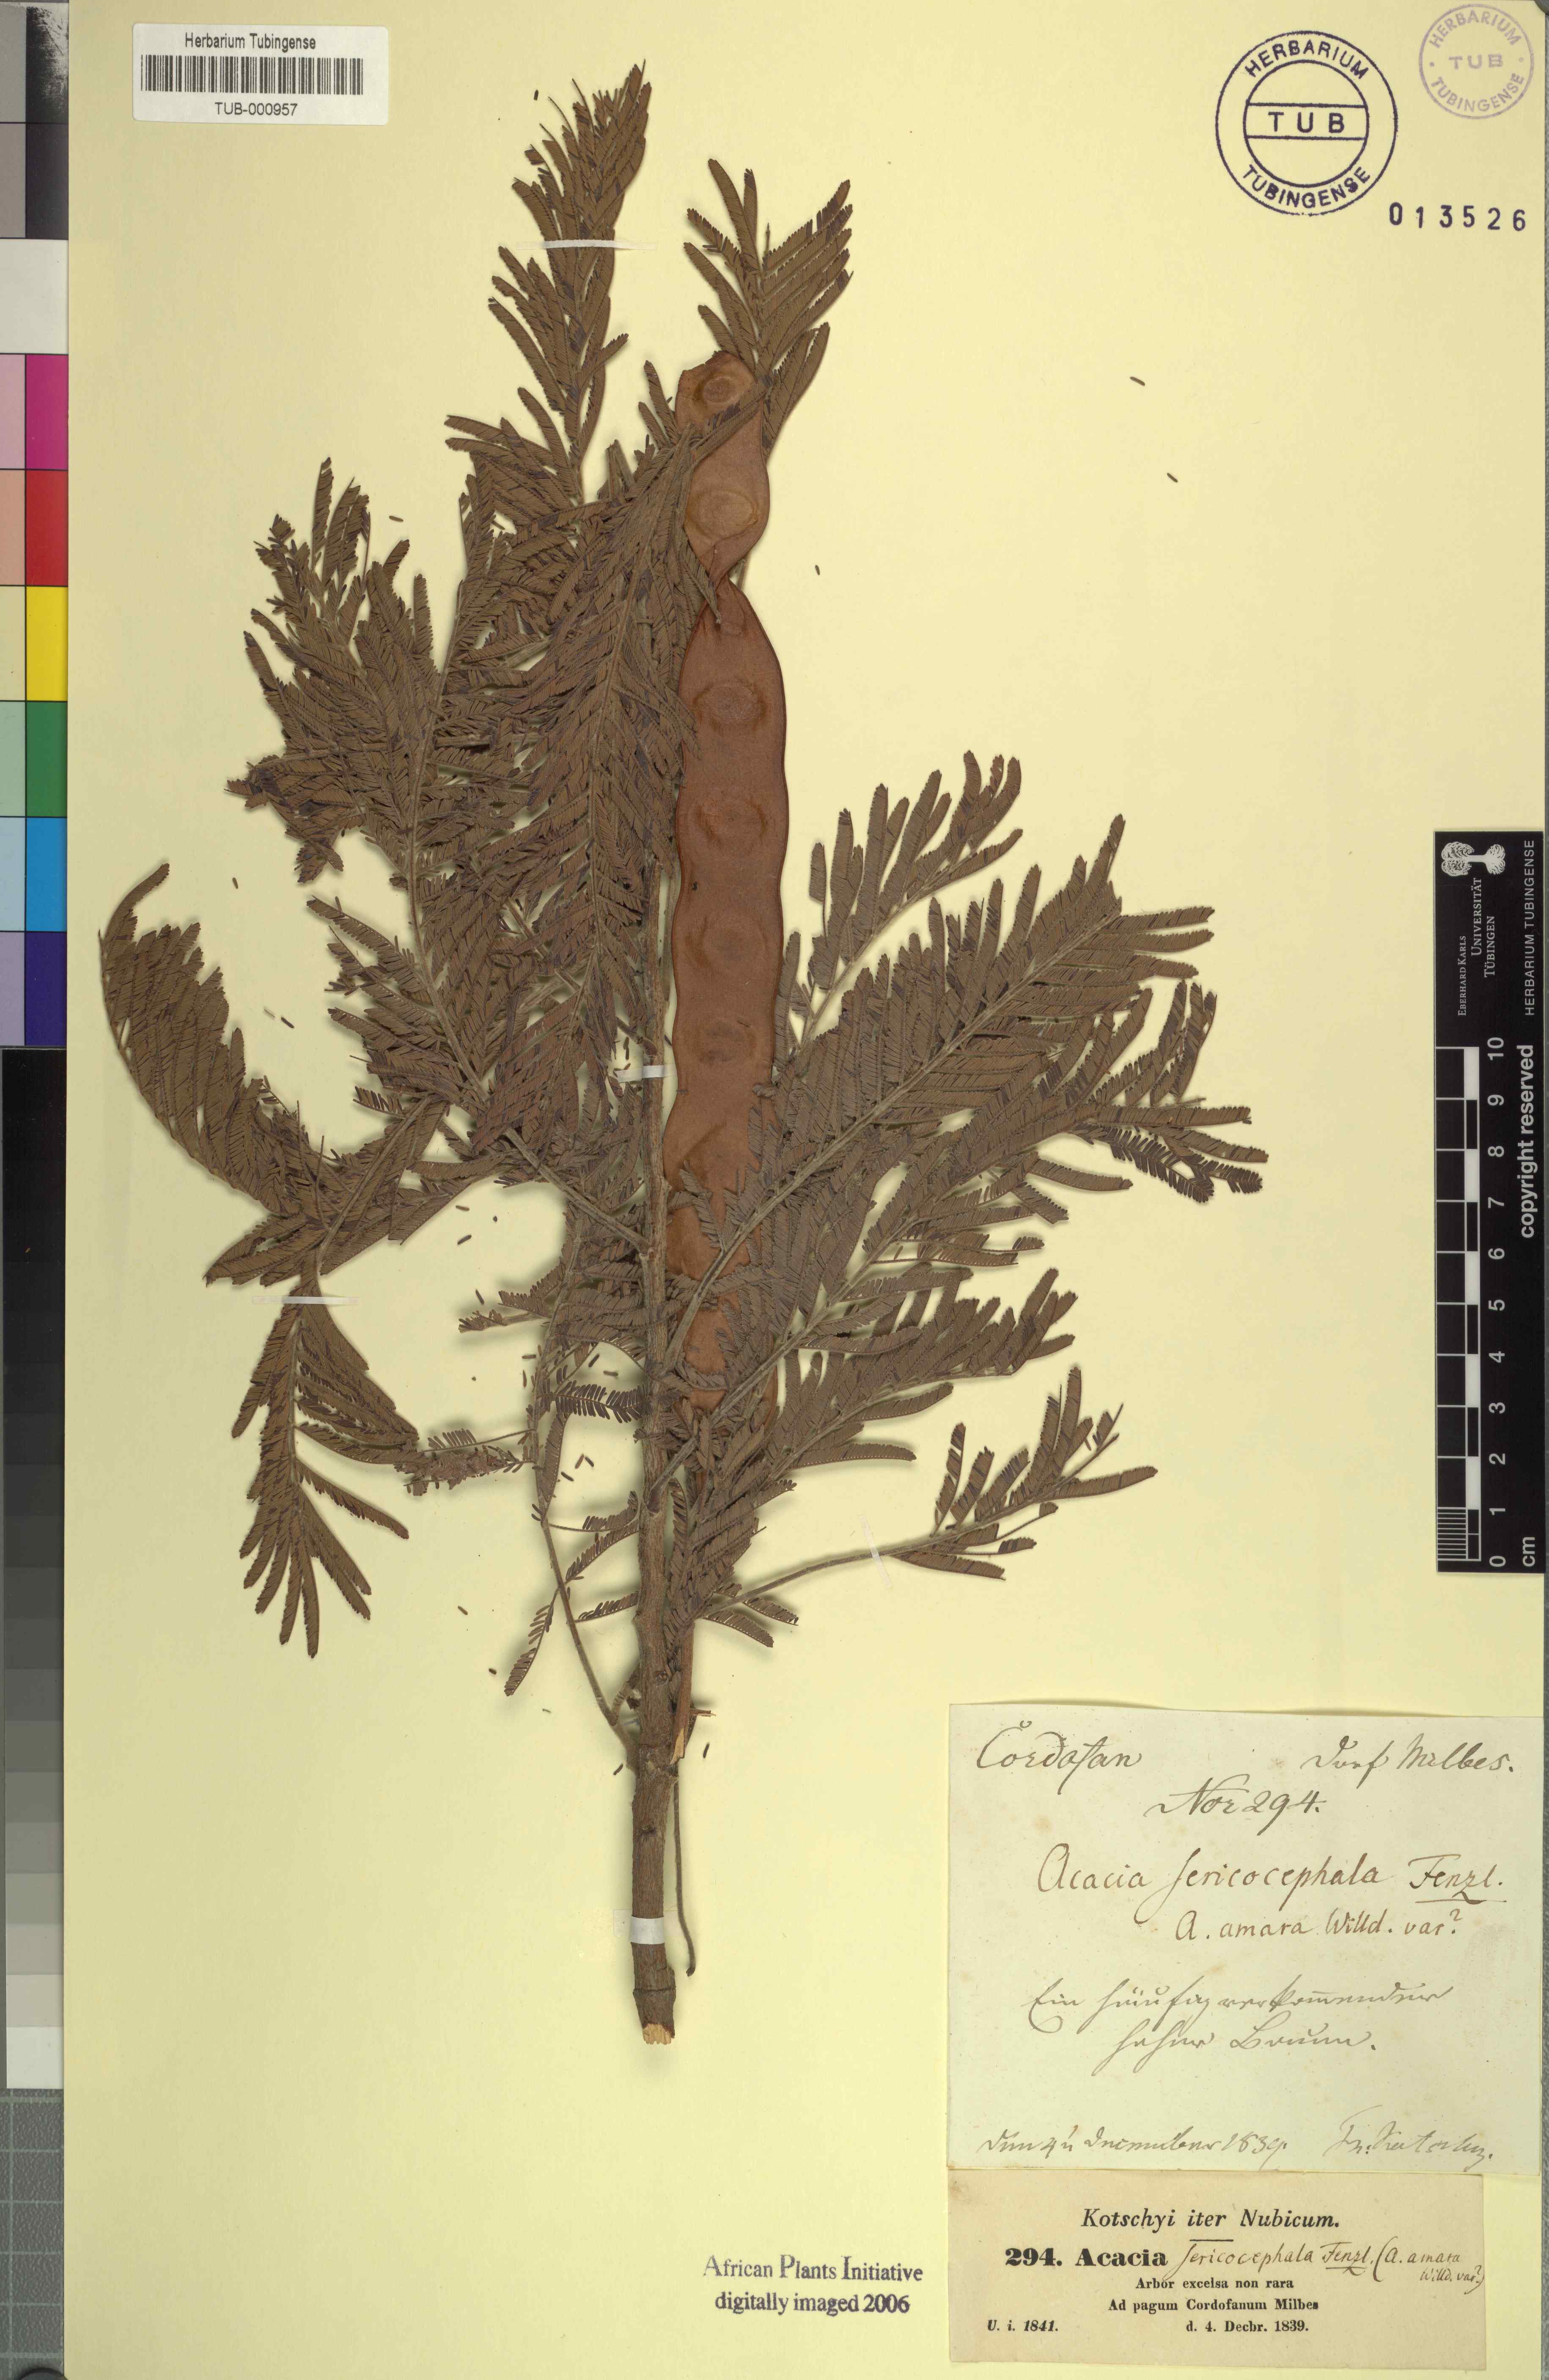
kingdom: Plantae
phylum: Tracheophyta
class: Magnoliopsida
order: Fabales
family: Fabaceae
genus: Albizia
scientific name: Albizia amara
